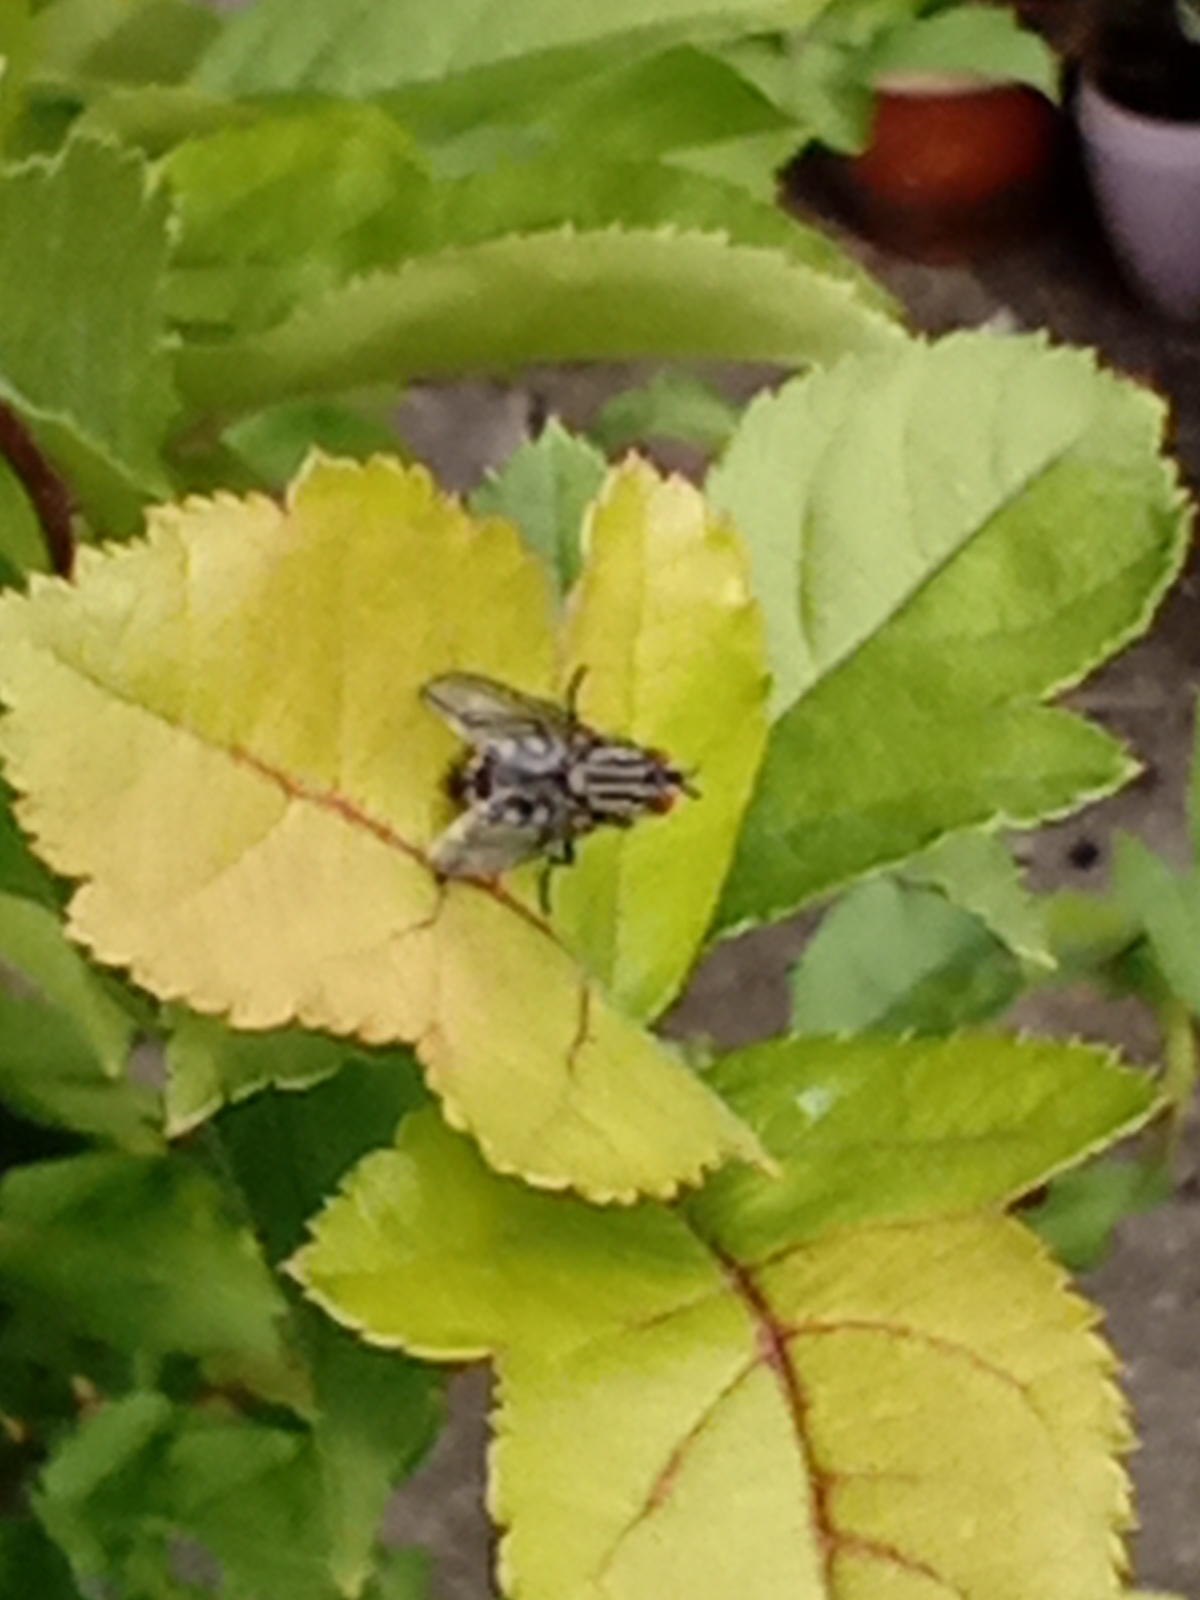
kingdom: Animalia
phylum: Arthropoda
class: Insecta
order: Diptera
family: Sarcophagidae
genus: Sarcophaga
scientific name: Sarcophaga
